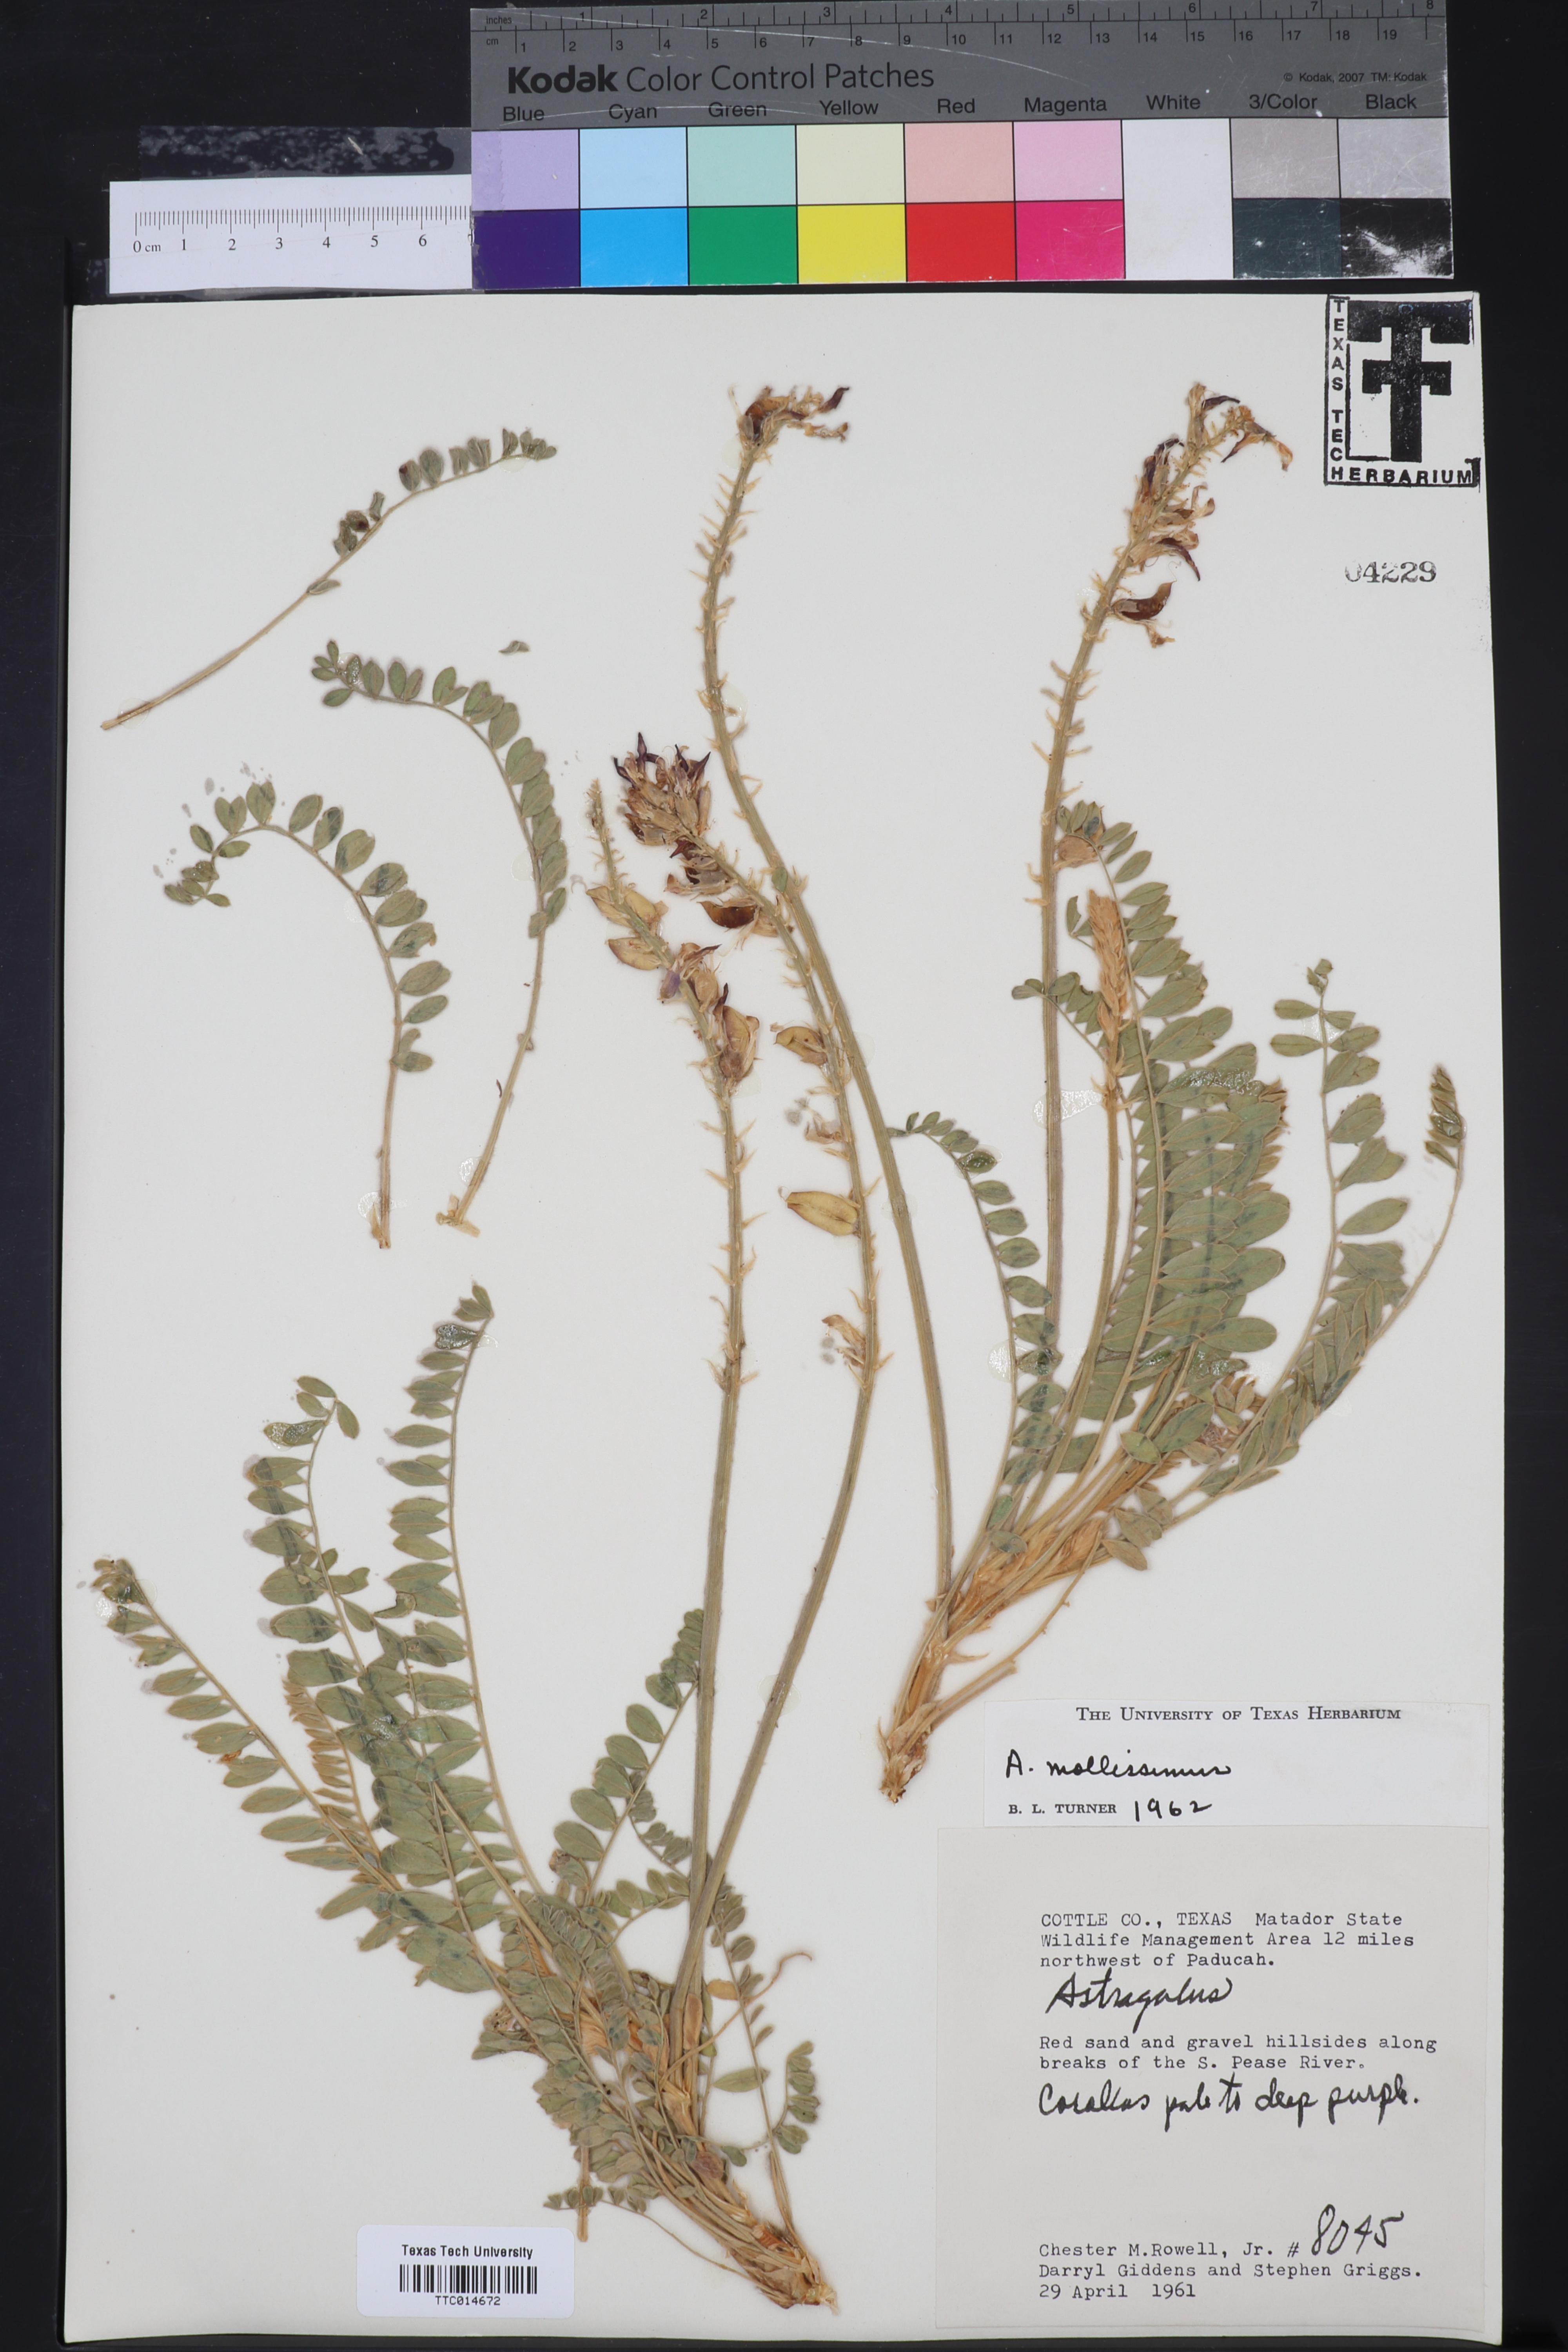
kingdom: Plantae
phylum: Tracheophyta
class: Magnoliopsida
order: Fabales
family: Fabaceae
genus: Astragalus
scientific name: Astragalus mollissimus
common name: Woolly locoweed
